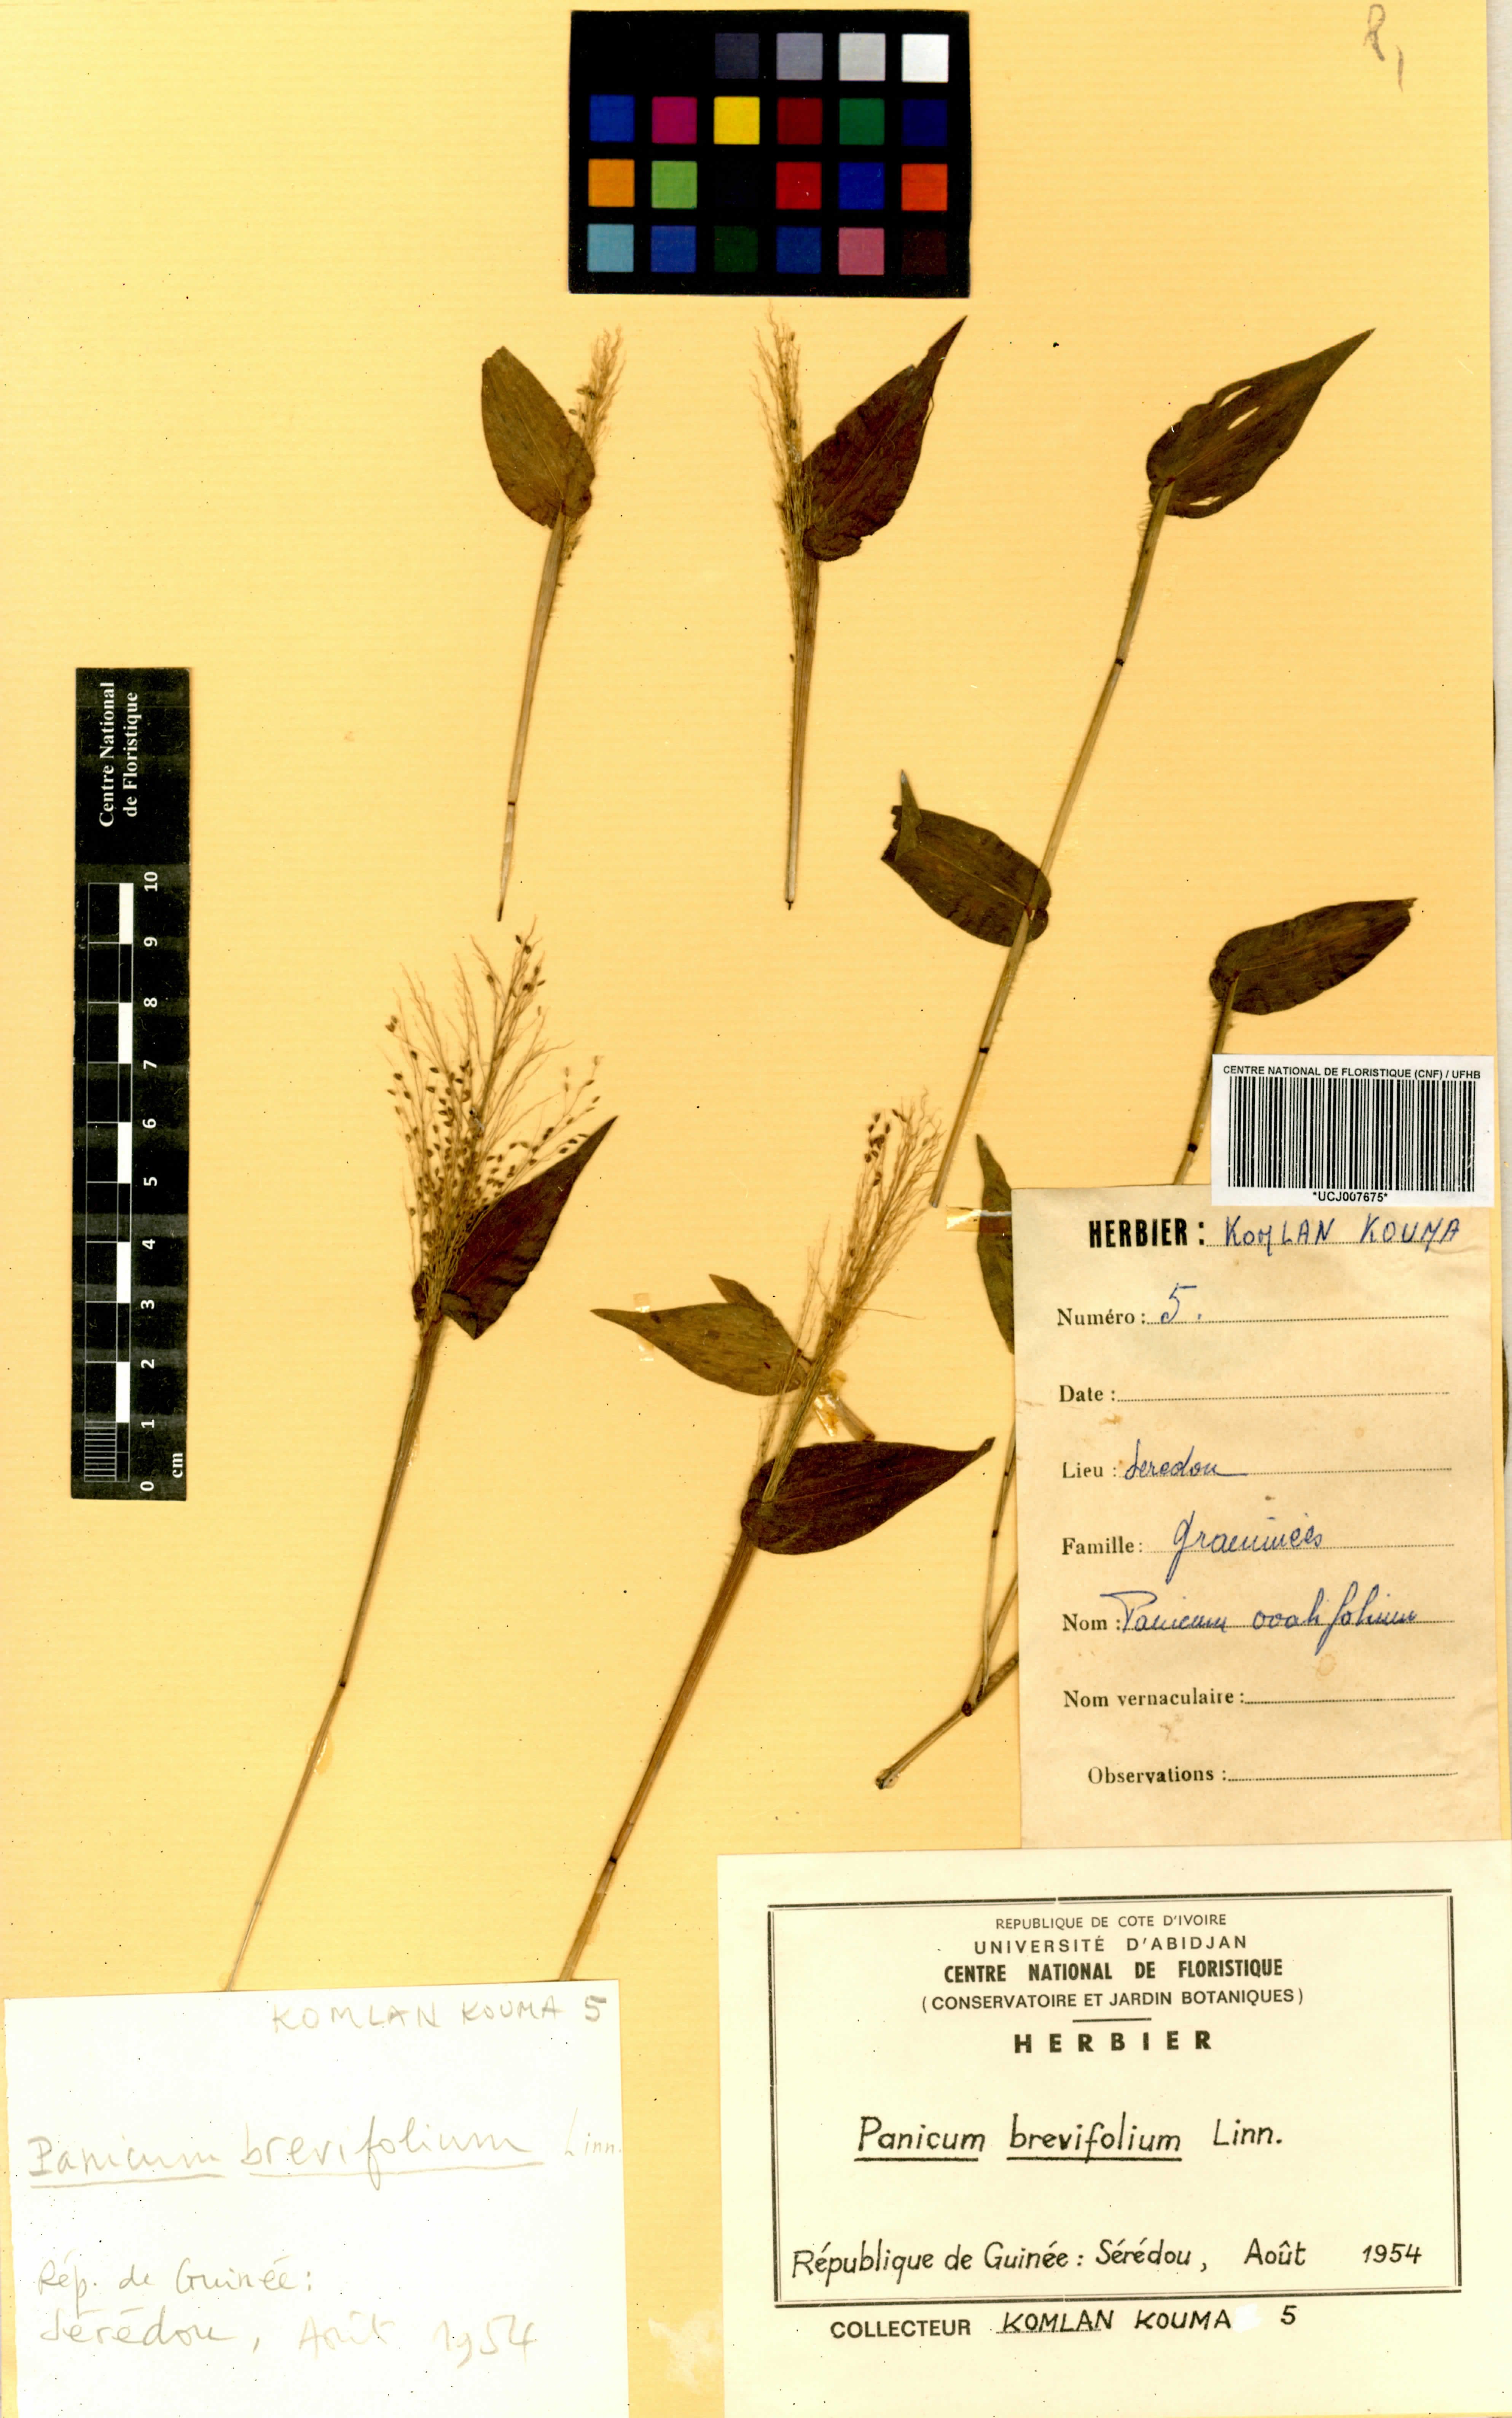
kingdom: Plantae
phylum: Tracheophyta
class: Liliopsida
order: Poales
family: Poaceae
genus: Panicum
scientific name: Panicum brevifolium
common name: Shortleaf panic grass
